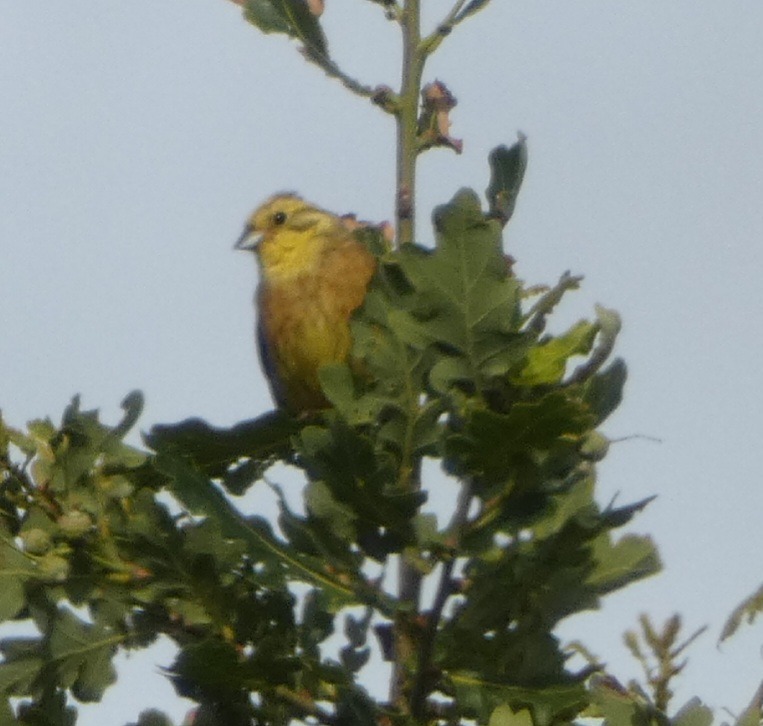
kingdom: Animalia
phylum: Chordata
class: Aves
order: Passeriformes
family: Emberizidae
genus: Emberiza
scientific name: Emberiza citrinella
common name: Gulspurv
